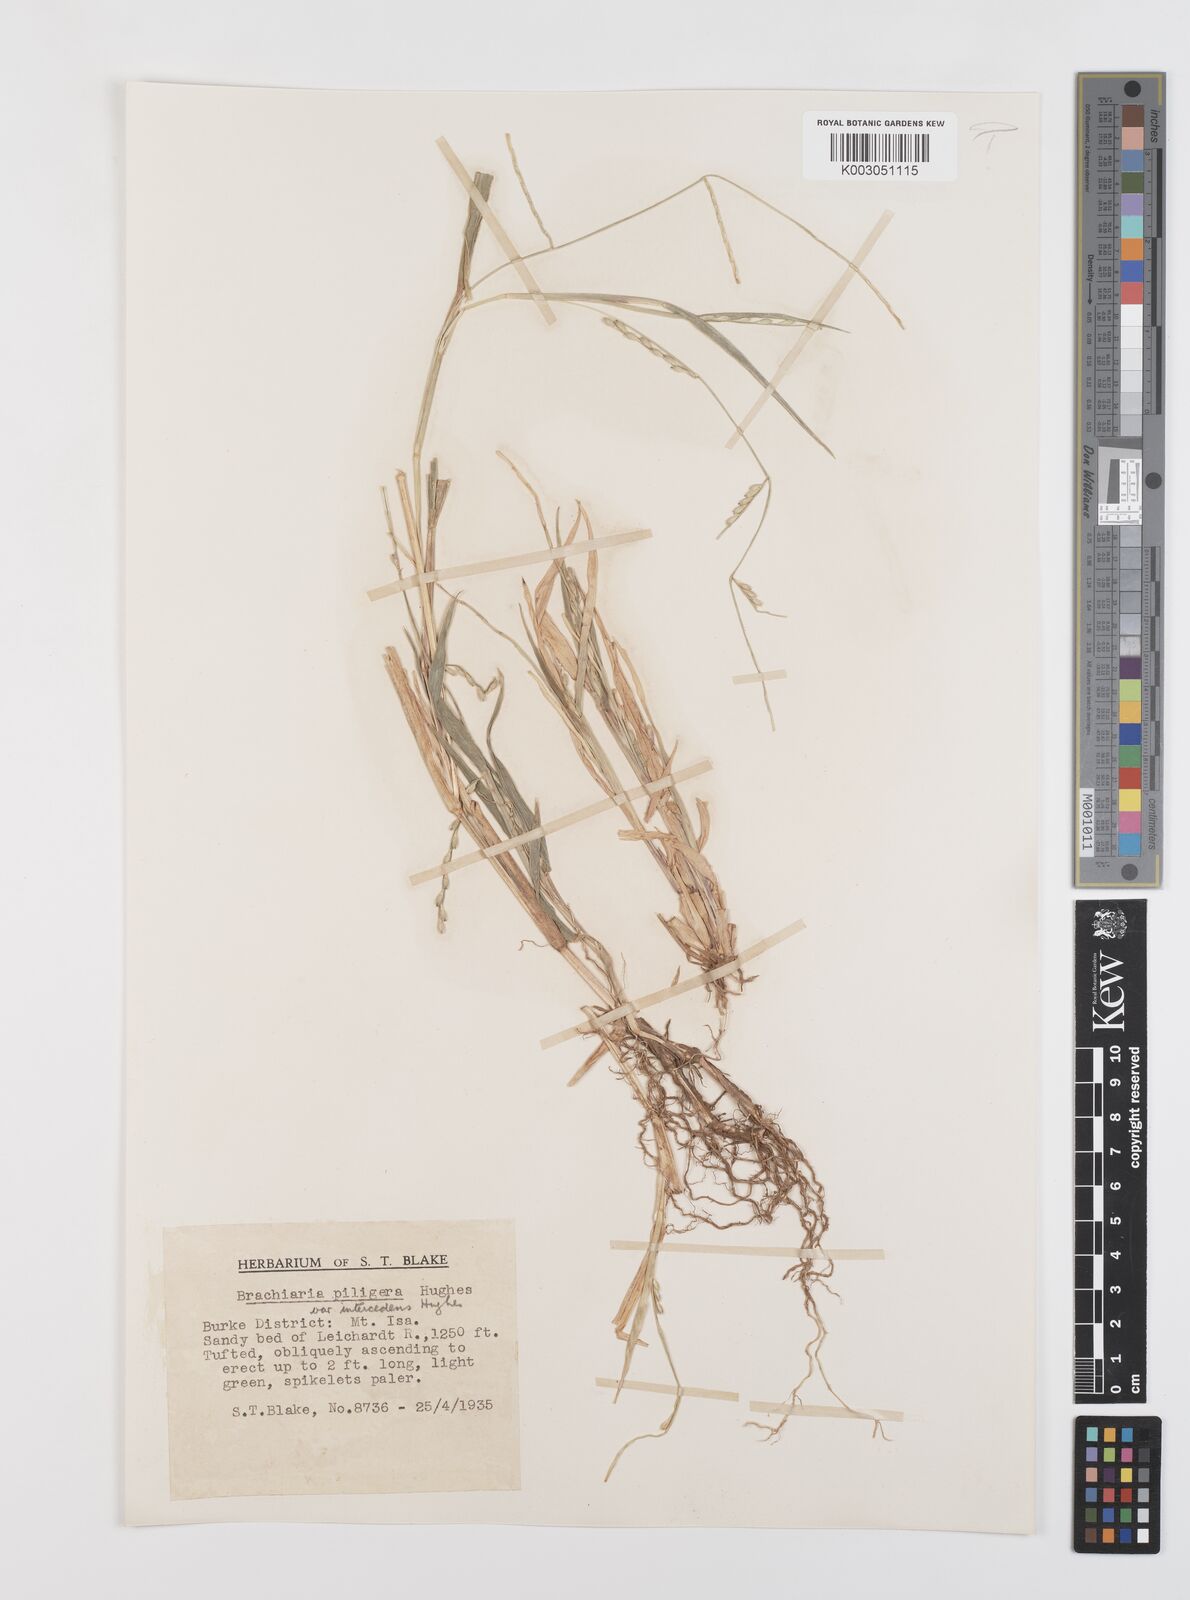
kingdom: Plantae
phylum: Tracheophyta
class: Liliopsida
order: Poales
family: Poaceae
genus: Urochloa
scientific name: Urochloa piligera
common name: Wattle signalgrass
